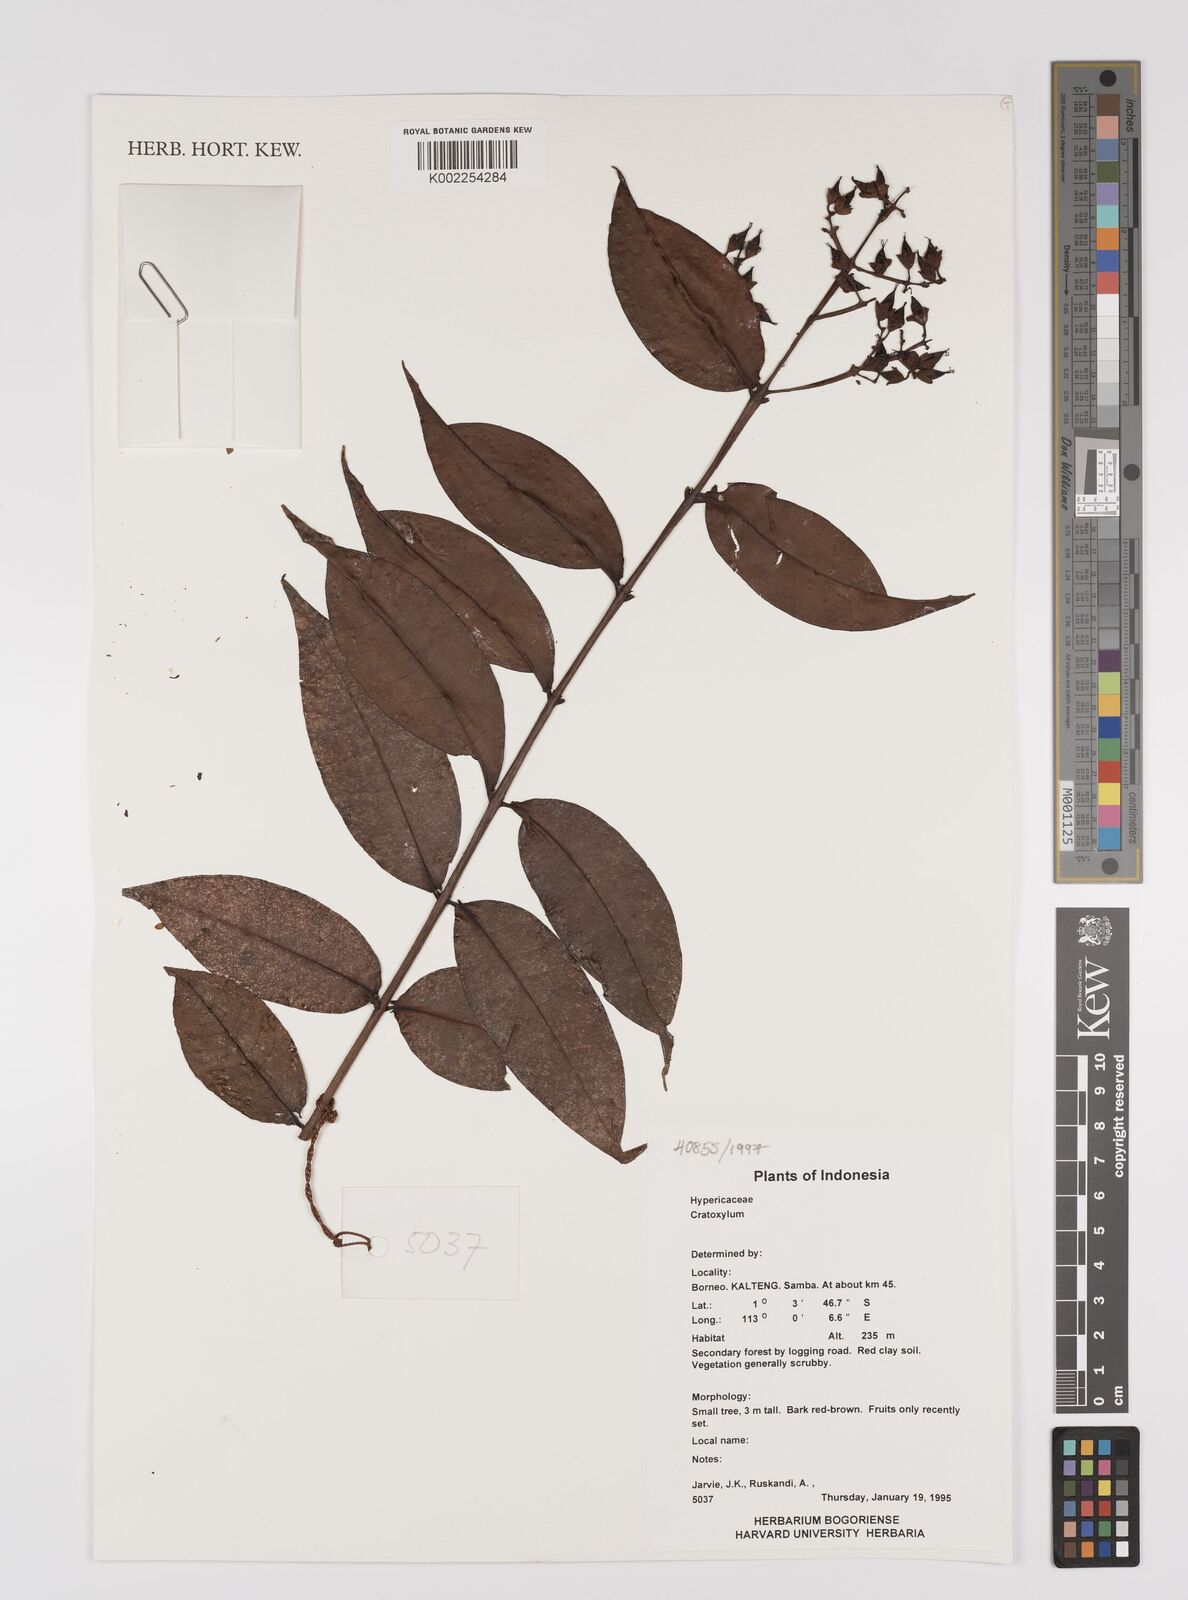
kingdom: Plantae
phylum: Tracheophyta
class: Magnoliopsida
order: Malpighiales
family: Hypericaceae
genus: Cratoxylum
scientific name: Cratoxylum
